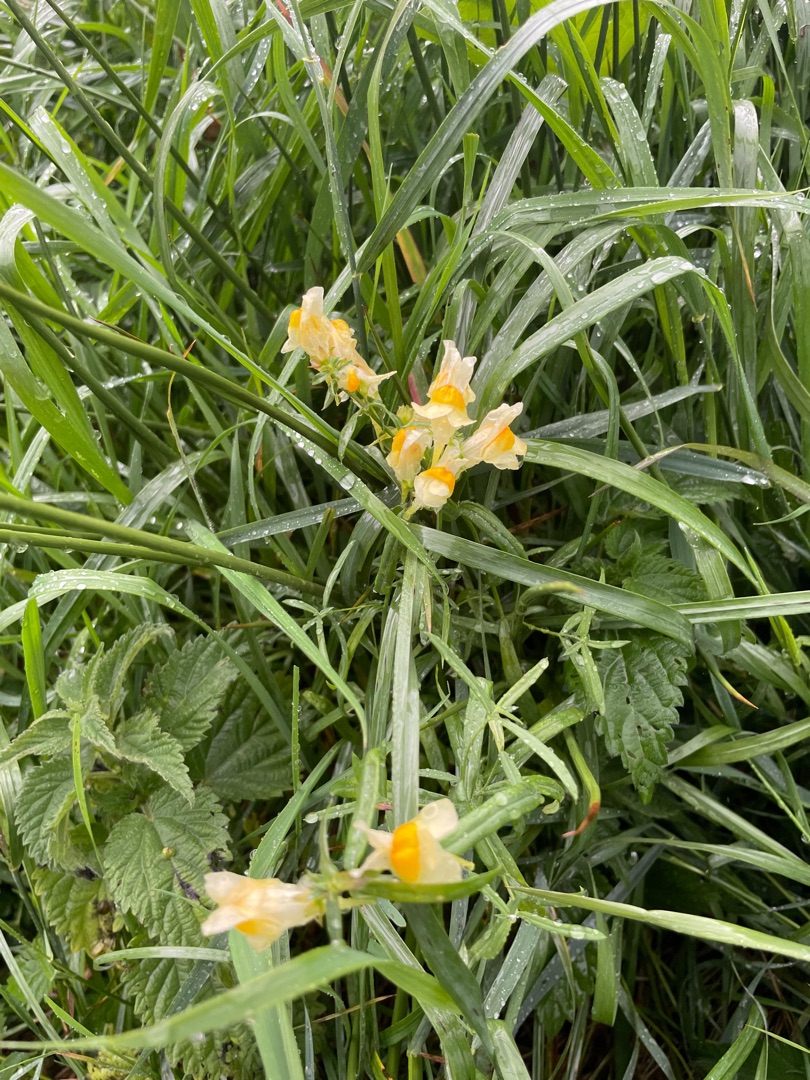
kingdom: Plantae
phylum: Tracheophyta
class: Magnoliopsida
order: Lamiales
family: Plantaginaceae
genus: Linaria
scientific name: Linaria vulgaris
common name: Almindelig torskemund
